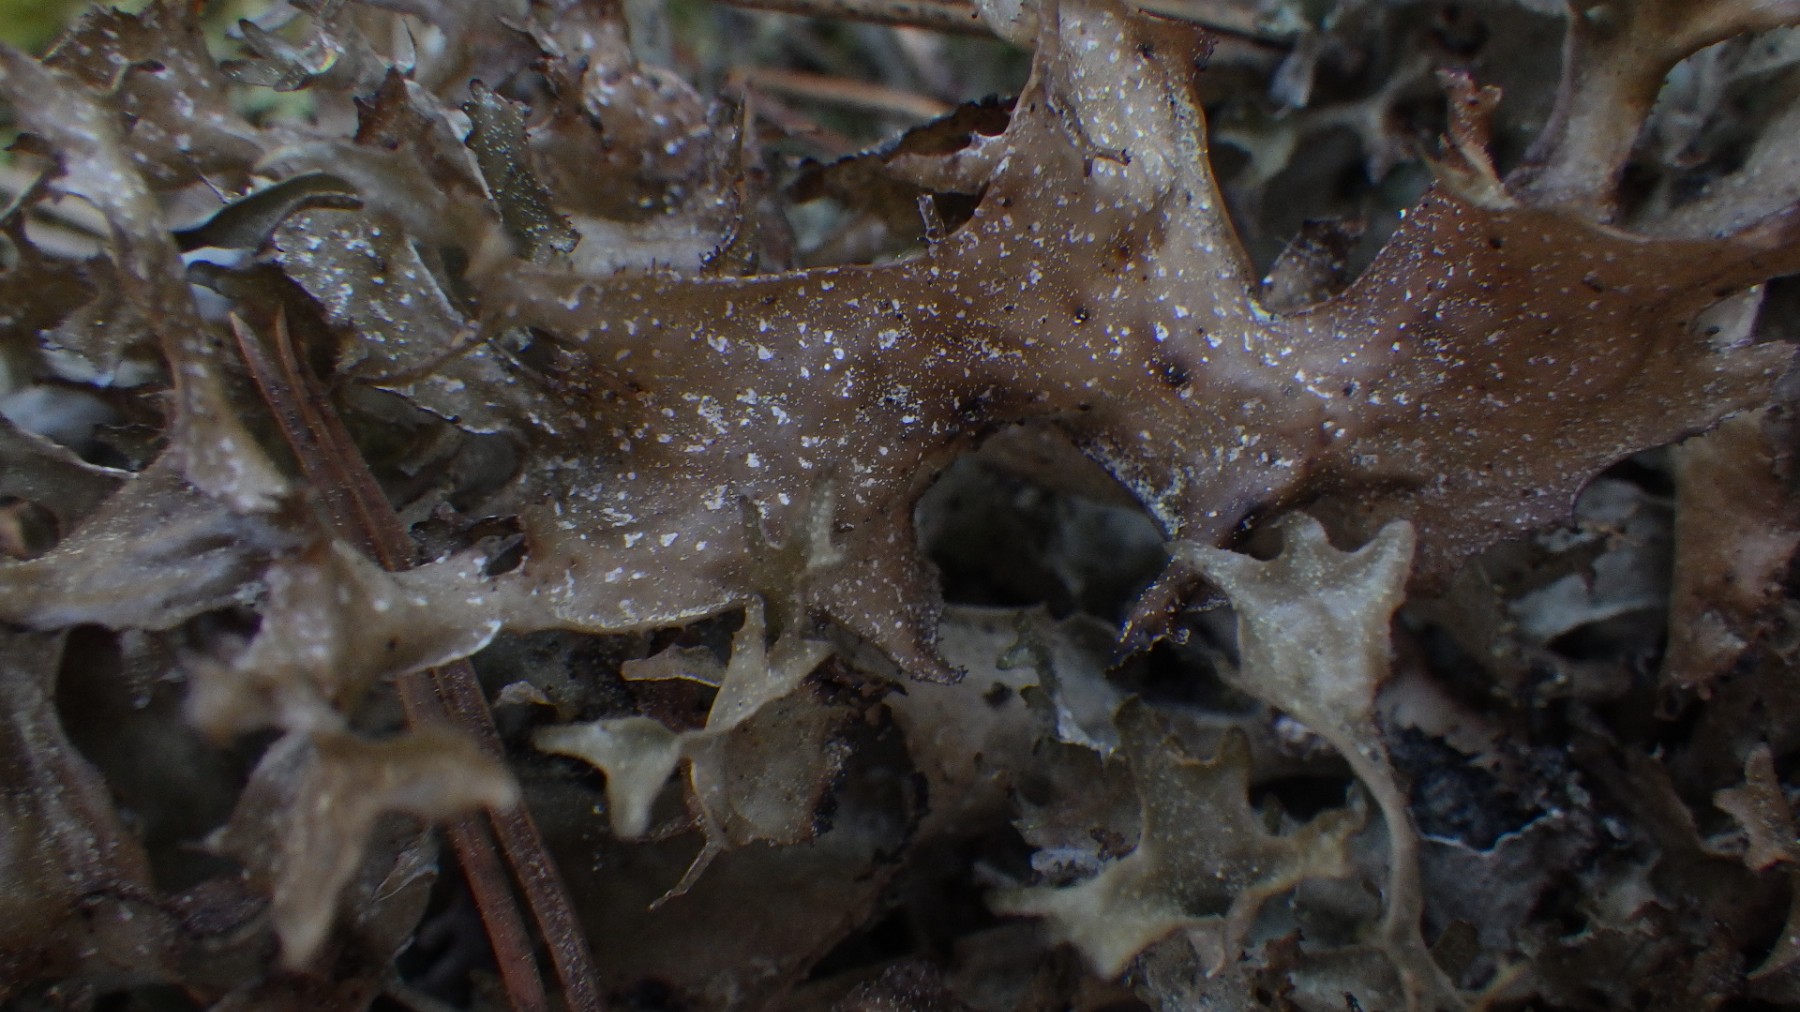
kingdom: Fungi
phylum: Ascomycota
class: Lecanoromycetes
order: Lecanorales
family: Parmeliaceae
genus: Cetraria
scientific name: Cetraria islandica
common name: islandsk kruslav
